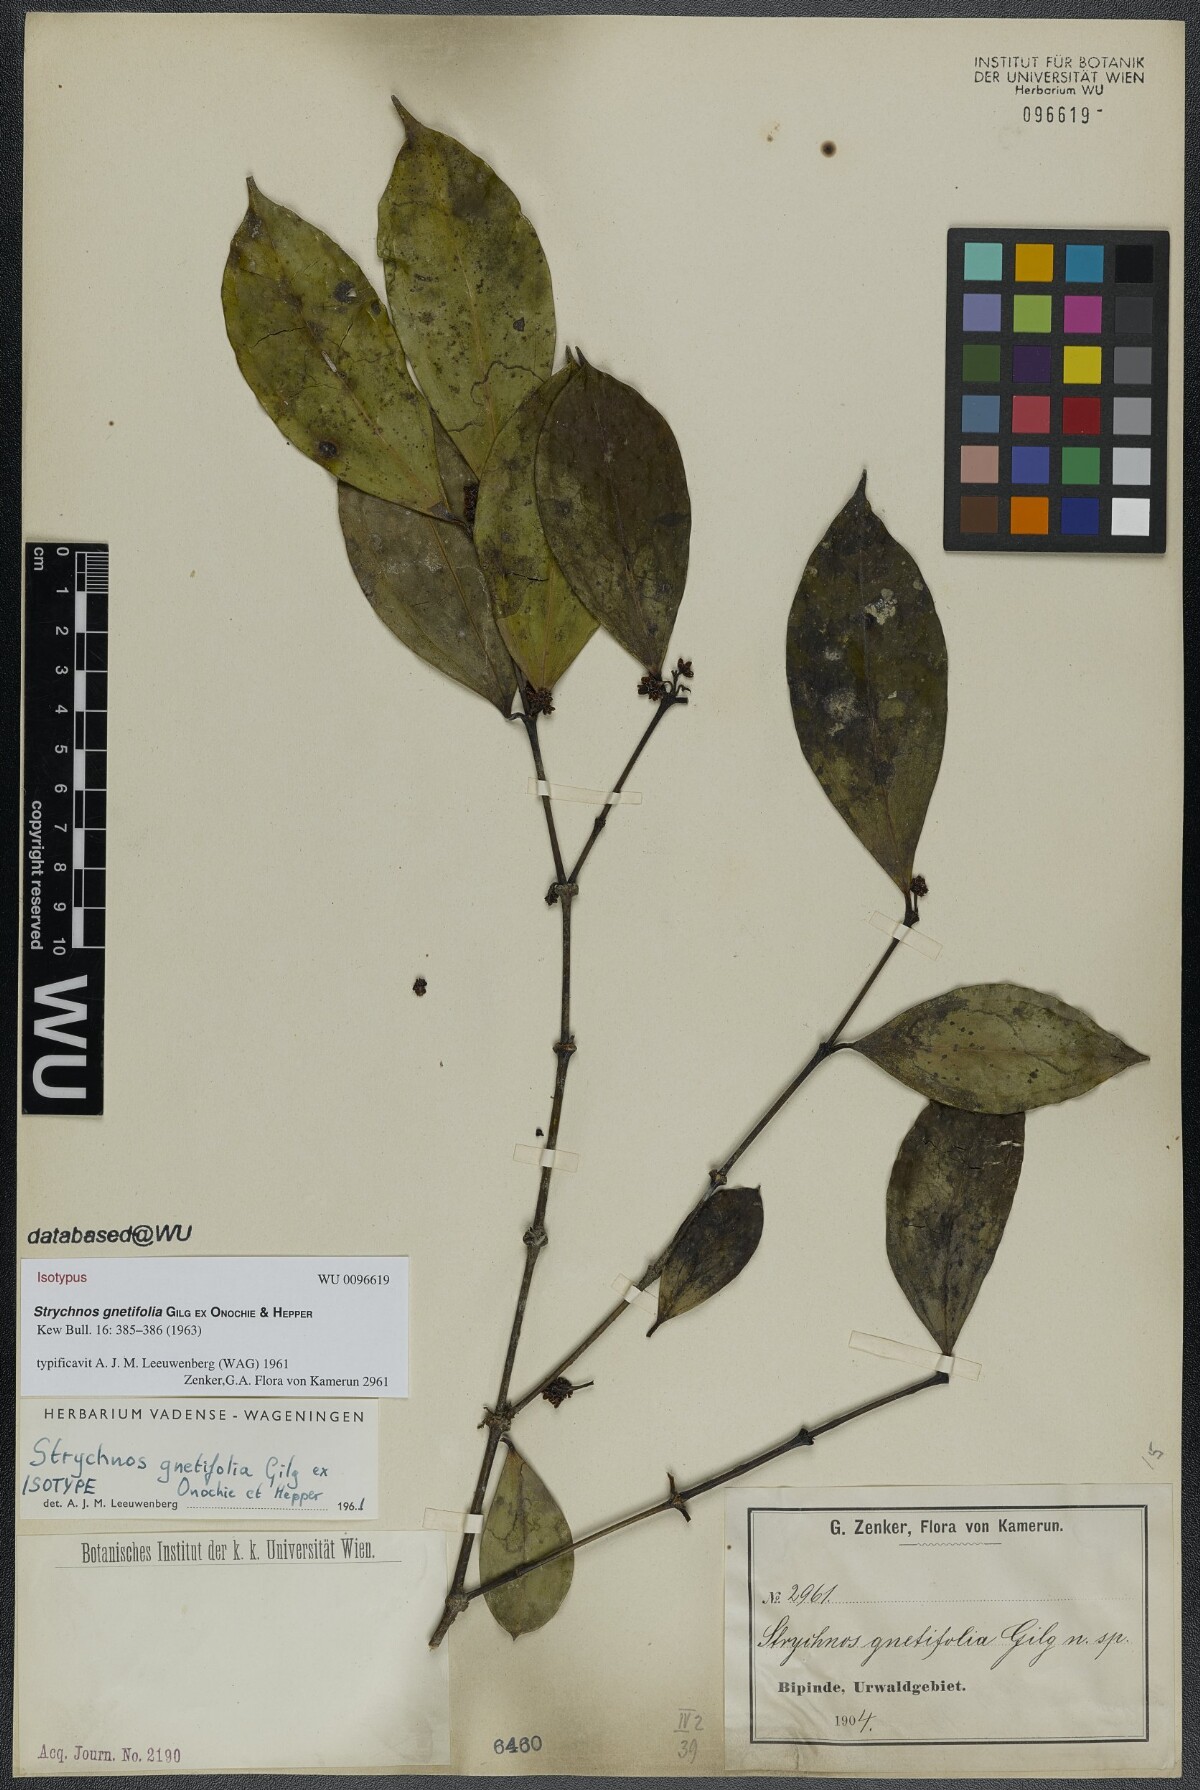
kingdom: Plantae
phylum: Tracheophyta
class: Magnoliopsida
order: Gentianales
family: Loganiaceae
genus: Strychnos
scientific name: Strychnos gnetifolia
